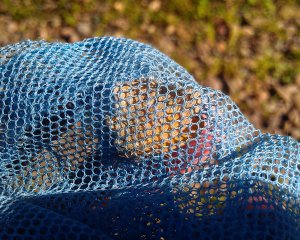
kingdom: Animalia
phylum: Arthropoda
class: Insecta
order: Lepidoptera
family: Nymphalidae
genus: Coenonympha
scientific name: Coenonympha tullia
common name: Large Heath
